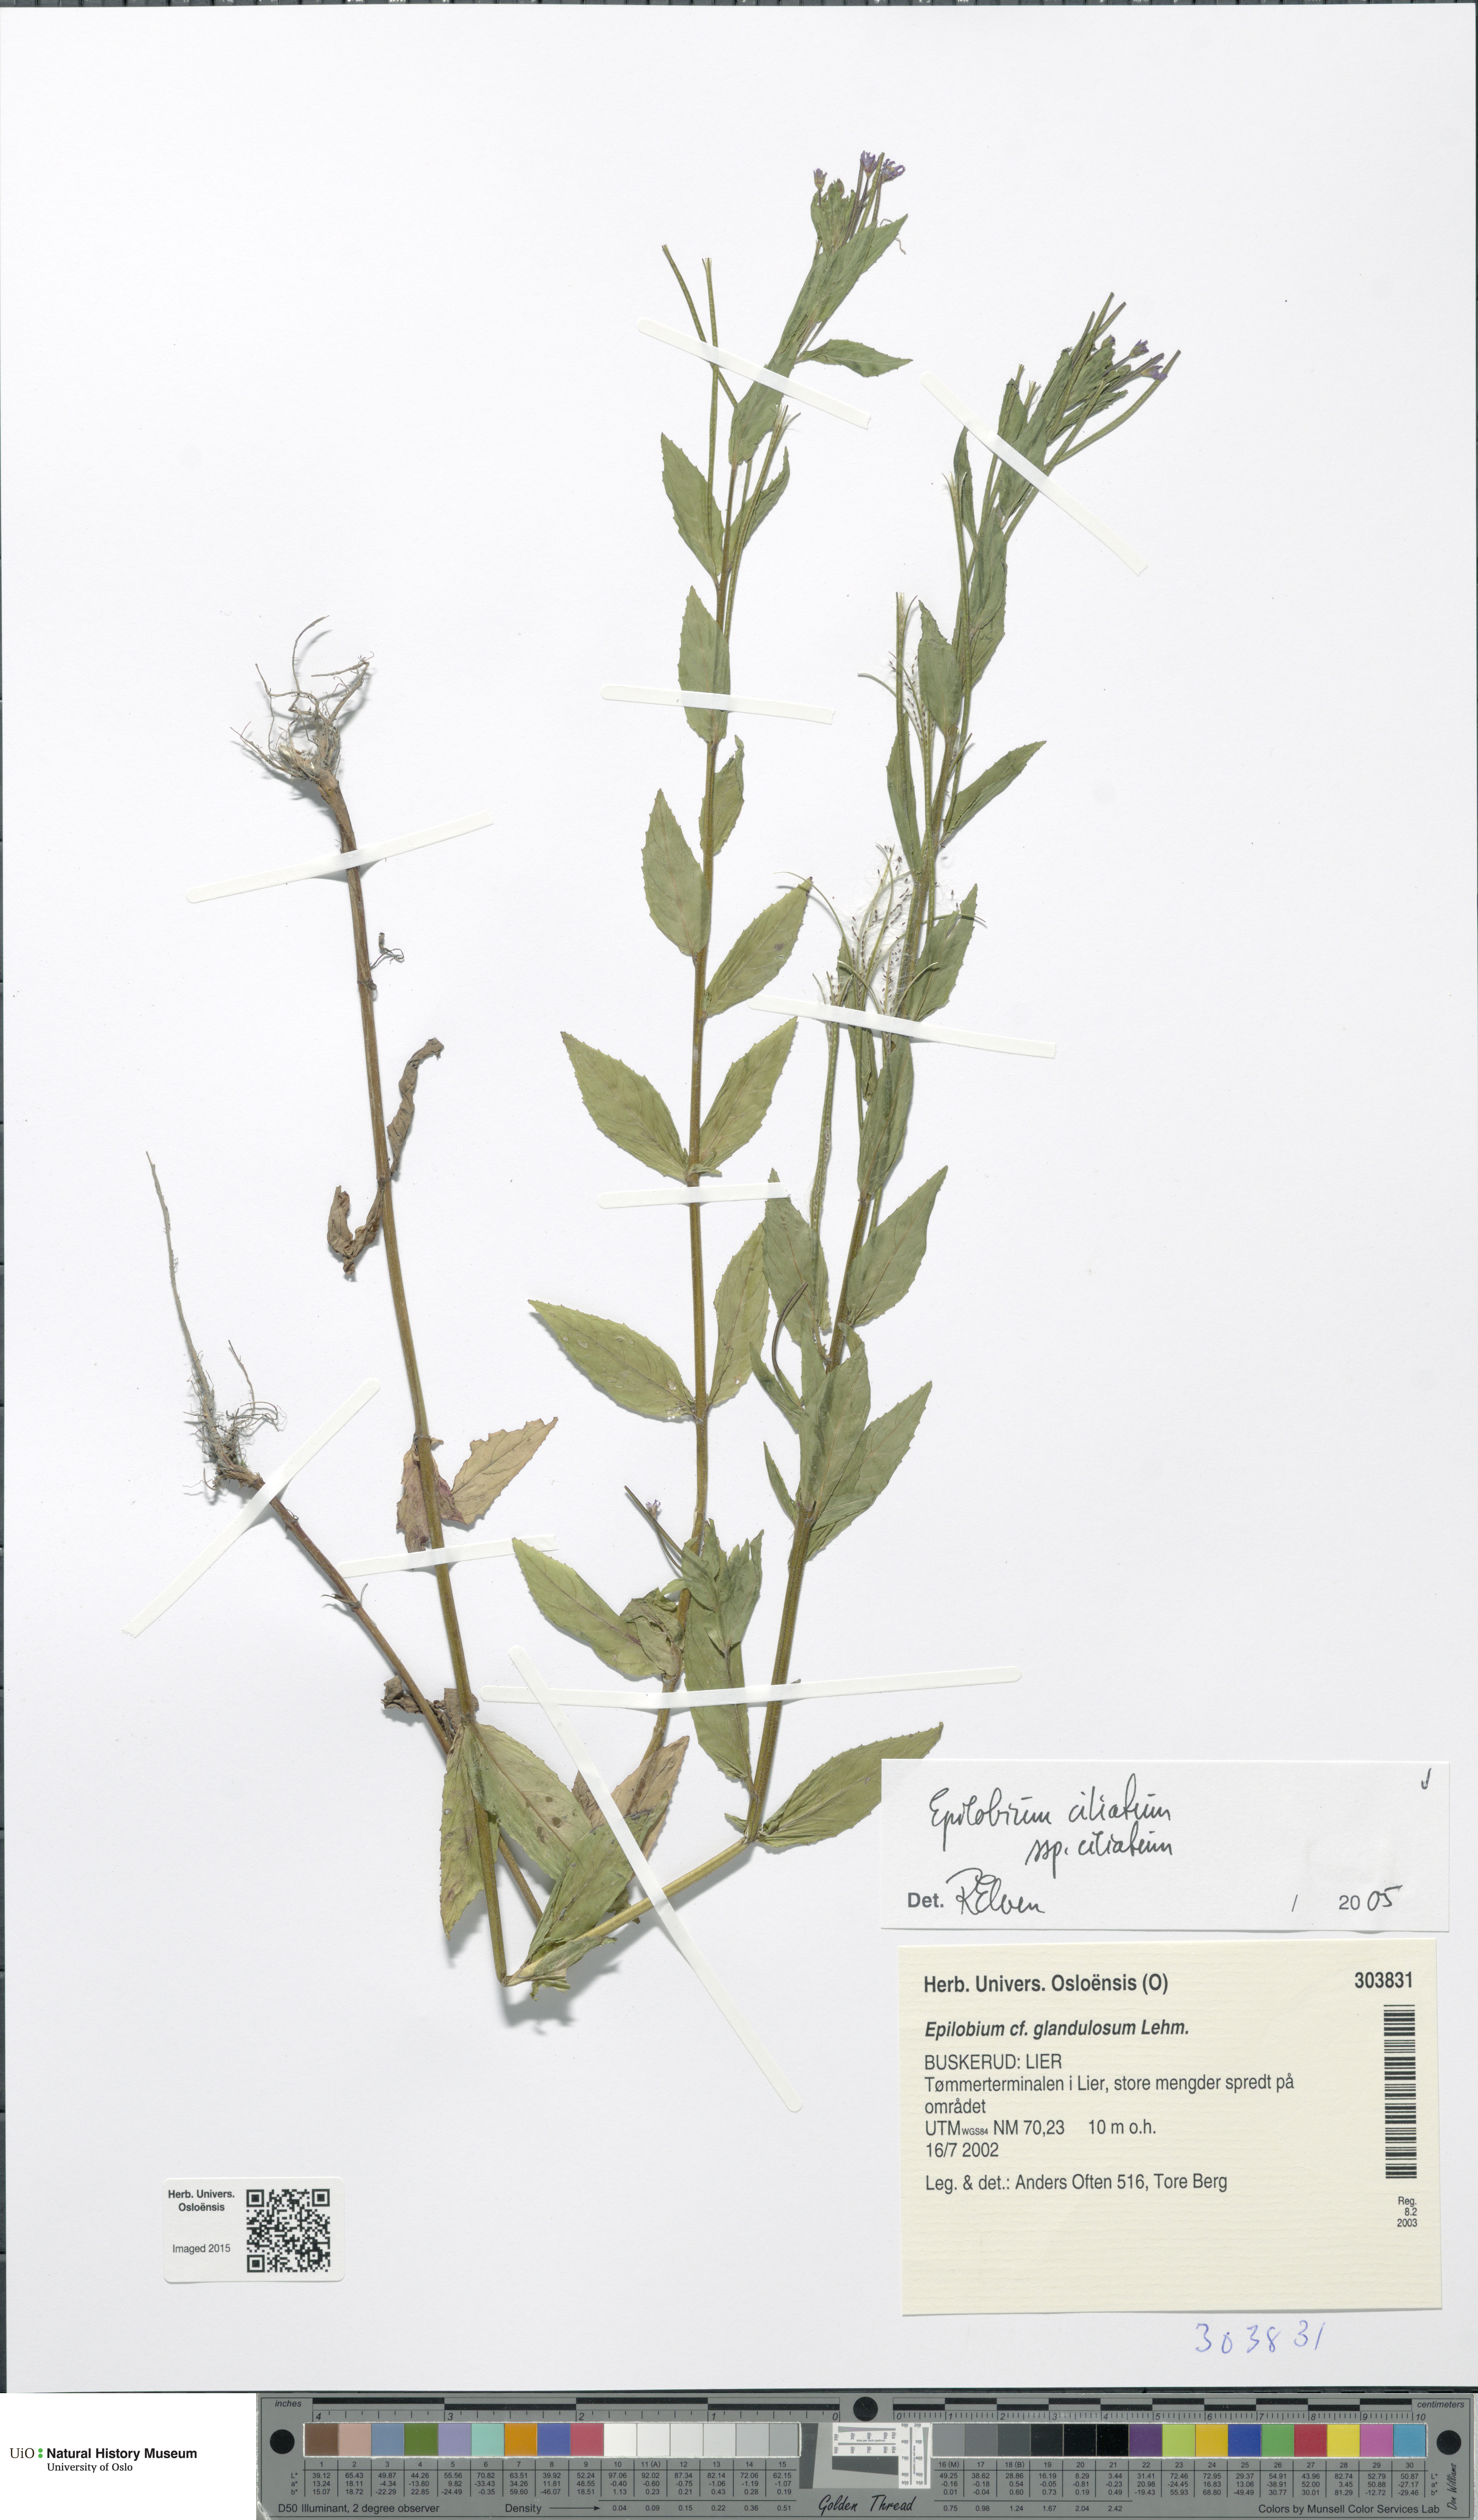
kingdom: Plantae
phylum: Tracheophyta
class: Magnoliopsida
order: Myrtales
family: Onagraceae
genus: Epilobium
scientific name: Epilobium ciliatum
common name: American willowherb
